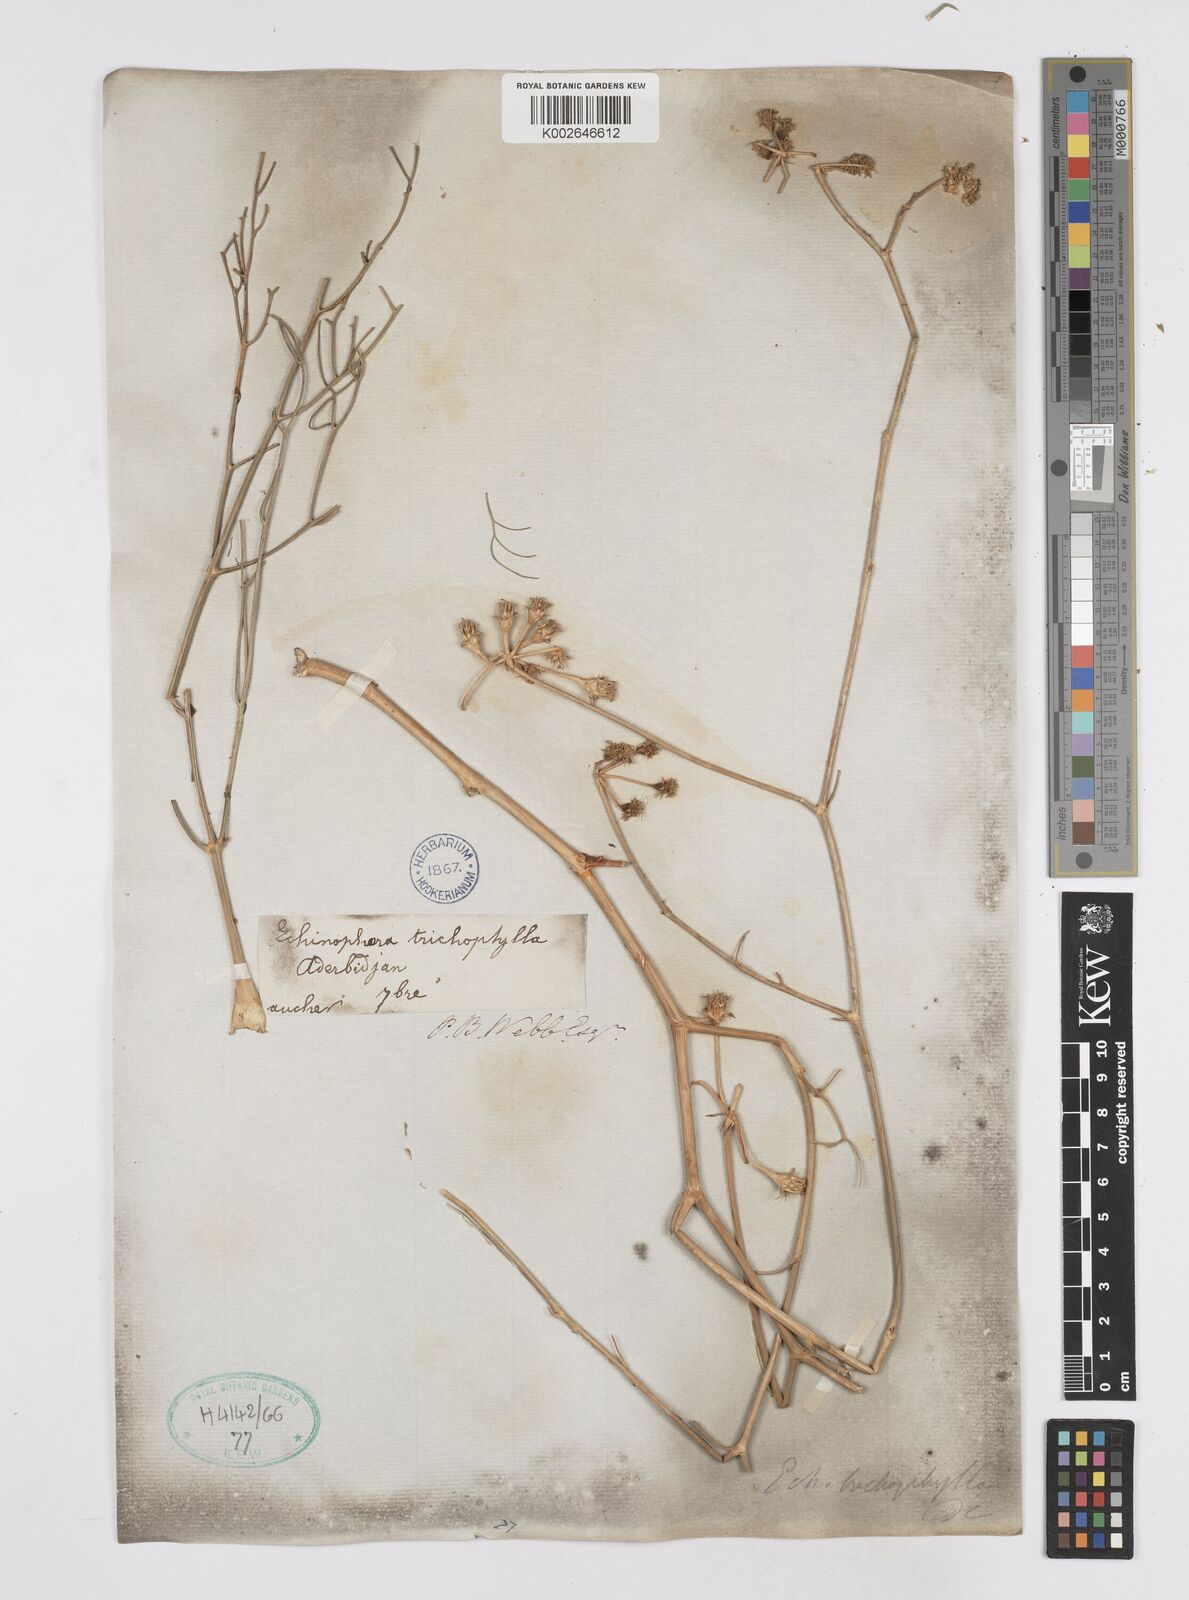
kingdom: Plantae
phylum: Tracheophyta
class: Magnoliopsida
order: Apiales
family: Apiaceae
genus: Echinophora
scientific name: Echinophora trichophylla
